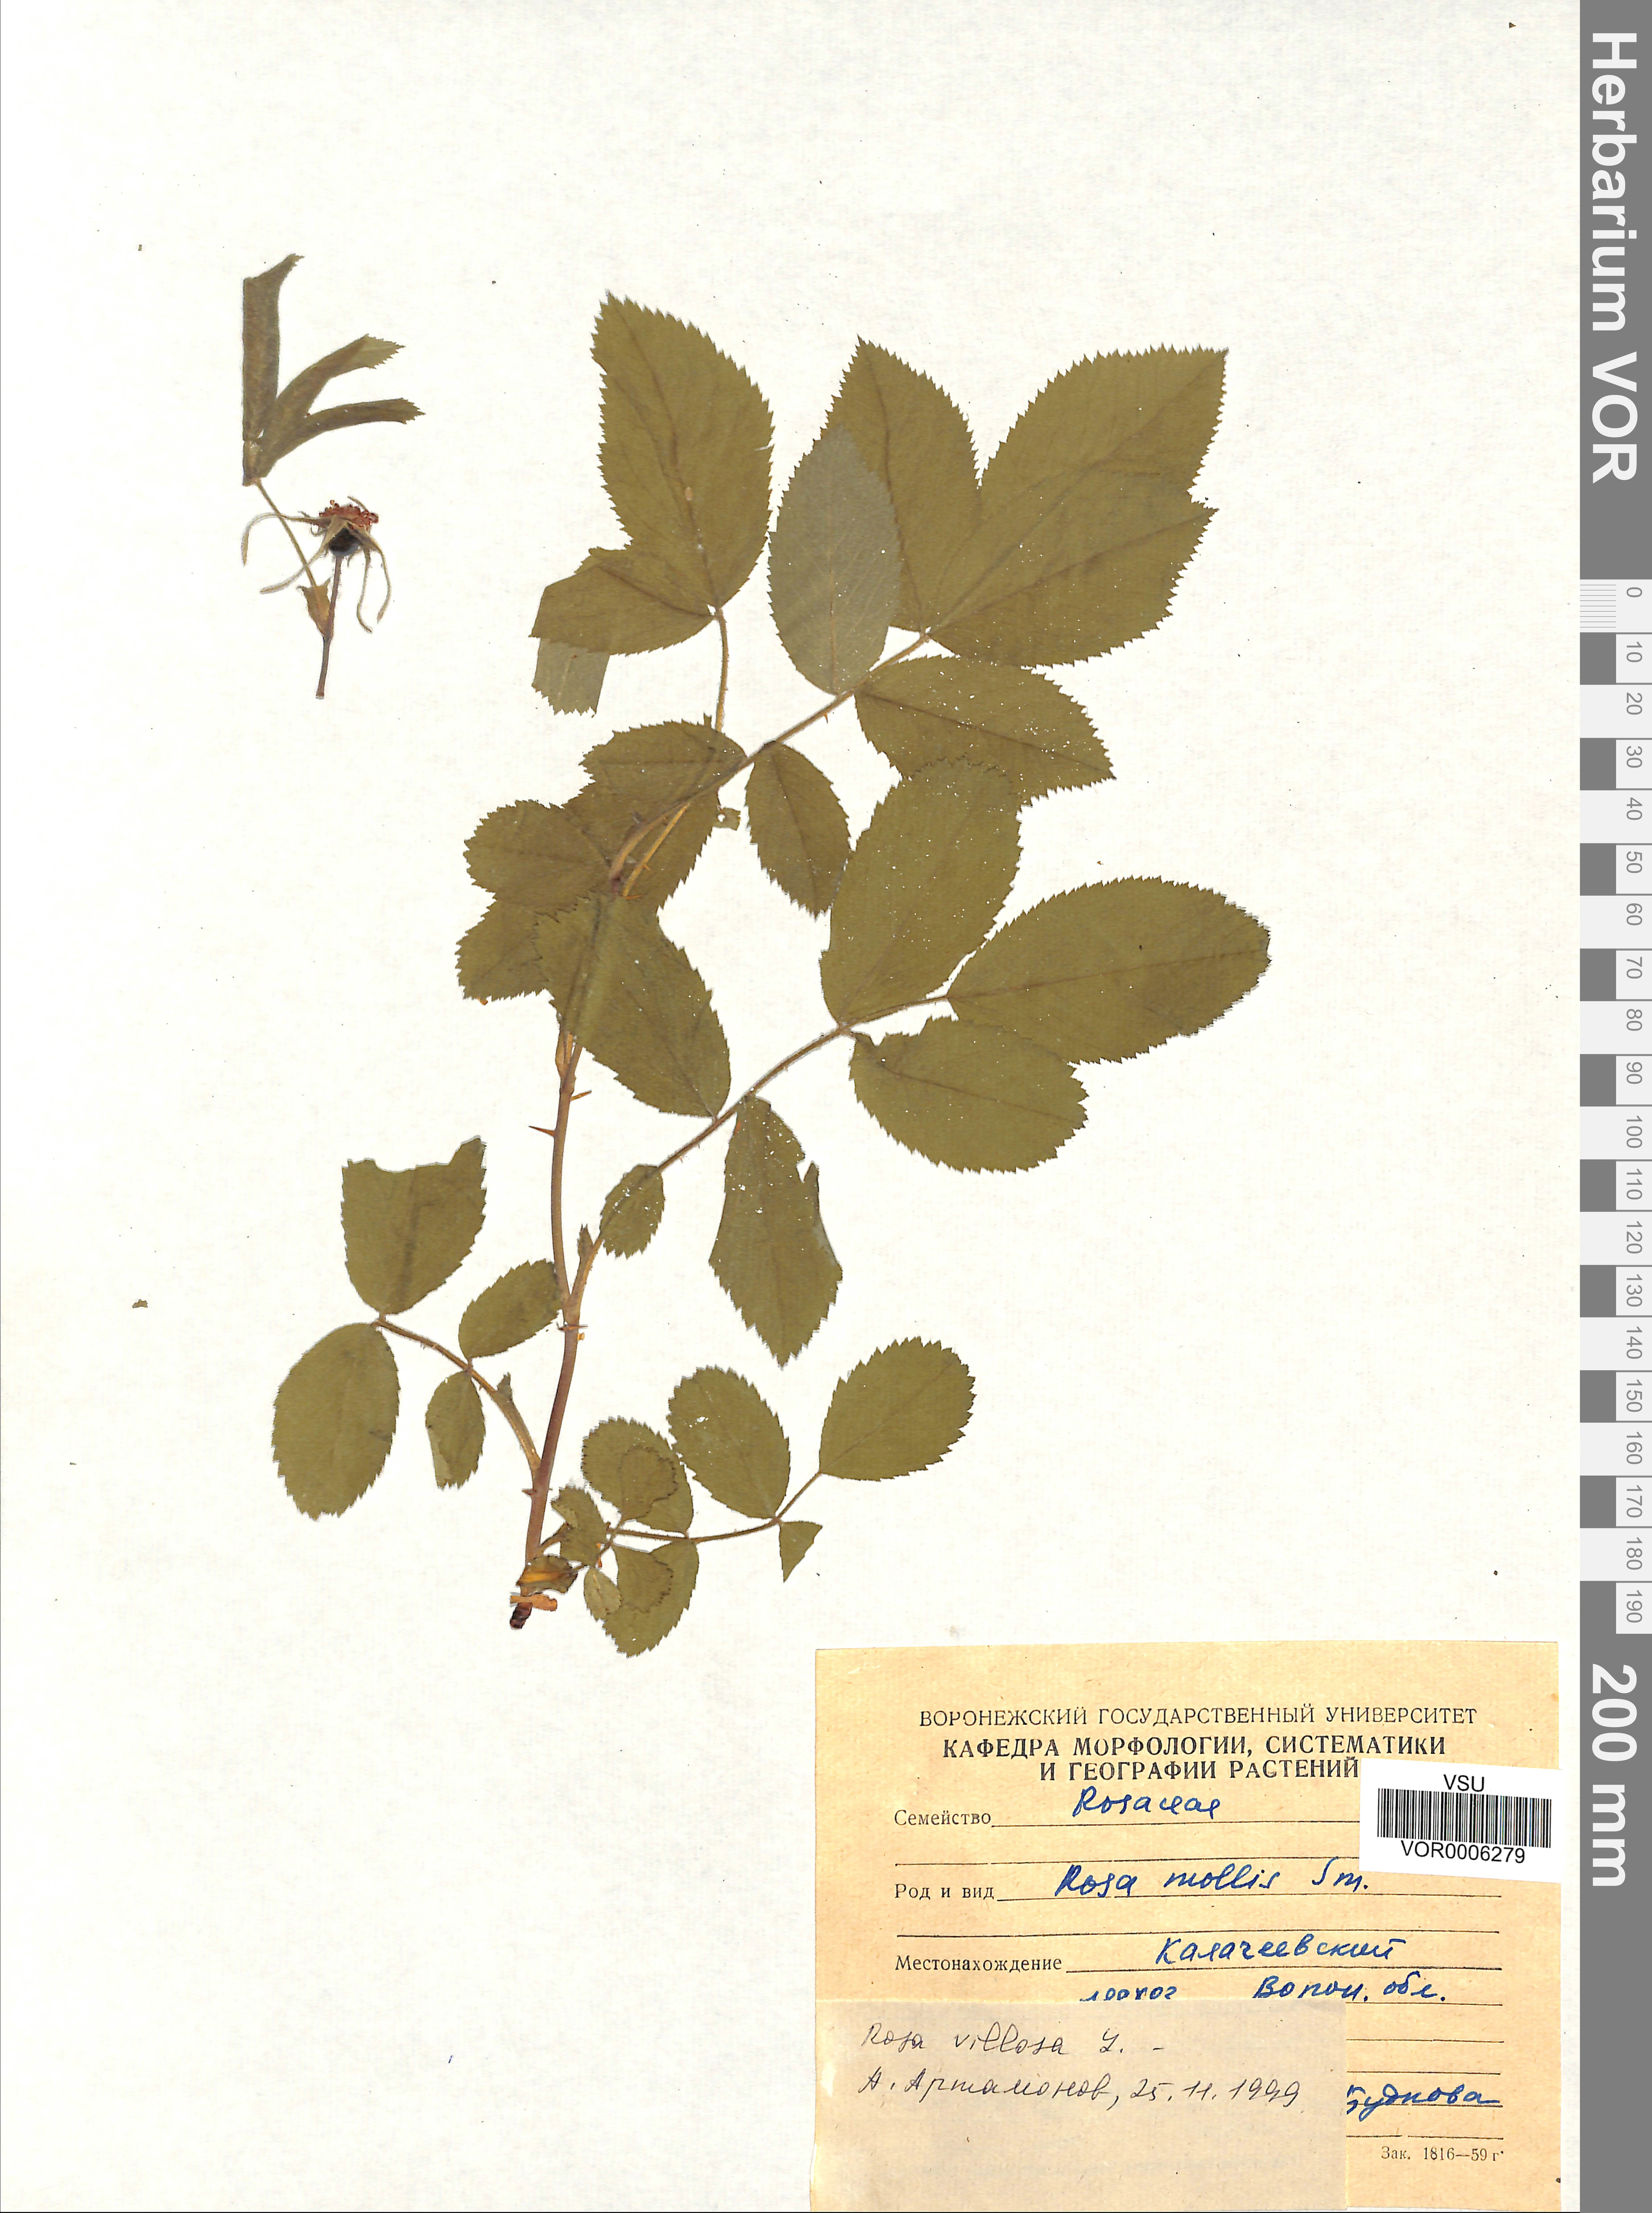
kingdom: Plantae
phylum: Tracheophyta
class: Magnoliopsida
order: Rosales
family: Rosaceae
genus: Rosa
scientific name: Rosa villosa
